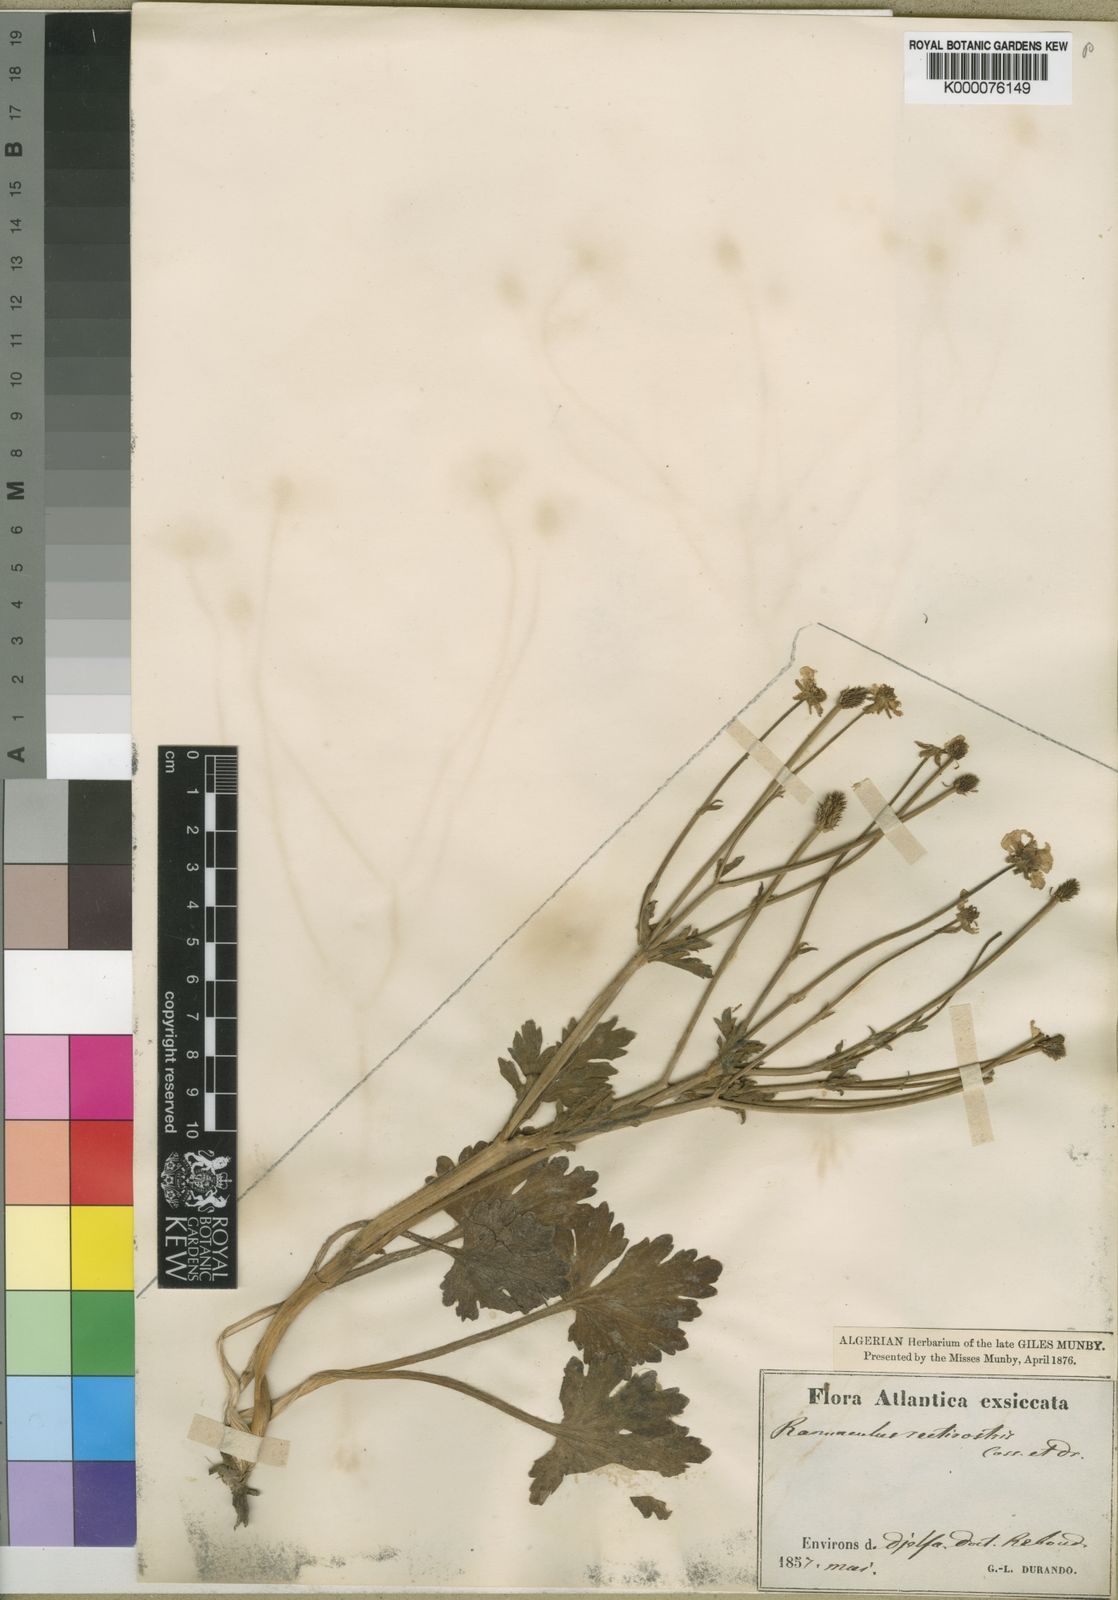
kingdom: Plantae
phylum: Tracheophyta
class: Magnoliopsida
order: Ranunculales
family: Ranunculaceae
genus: Ranunculus
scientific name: Ranunculus rectirostris
